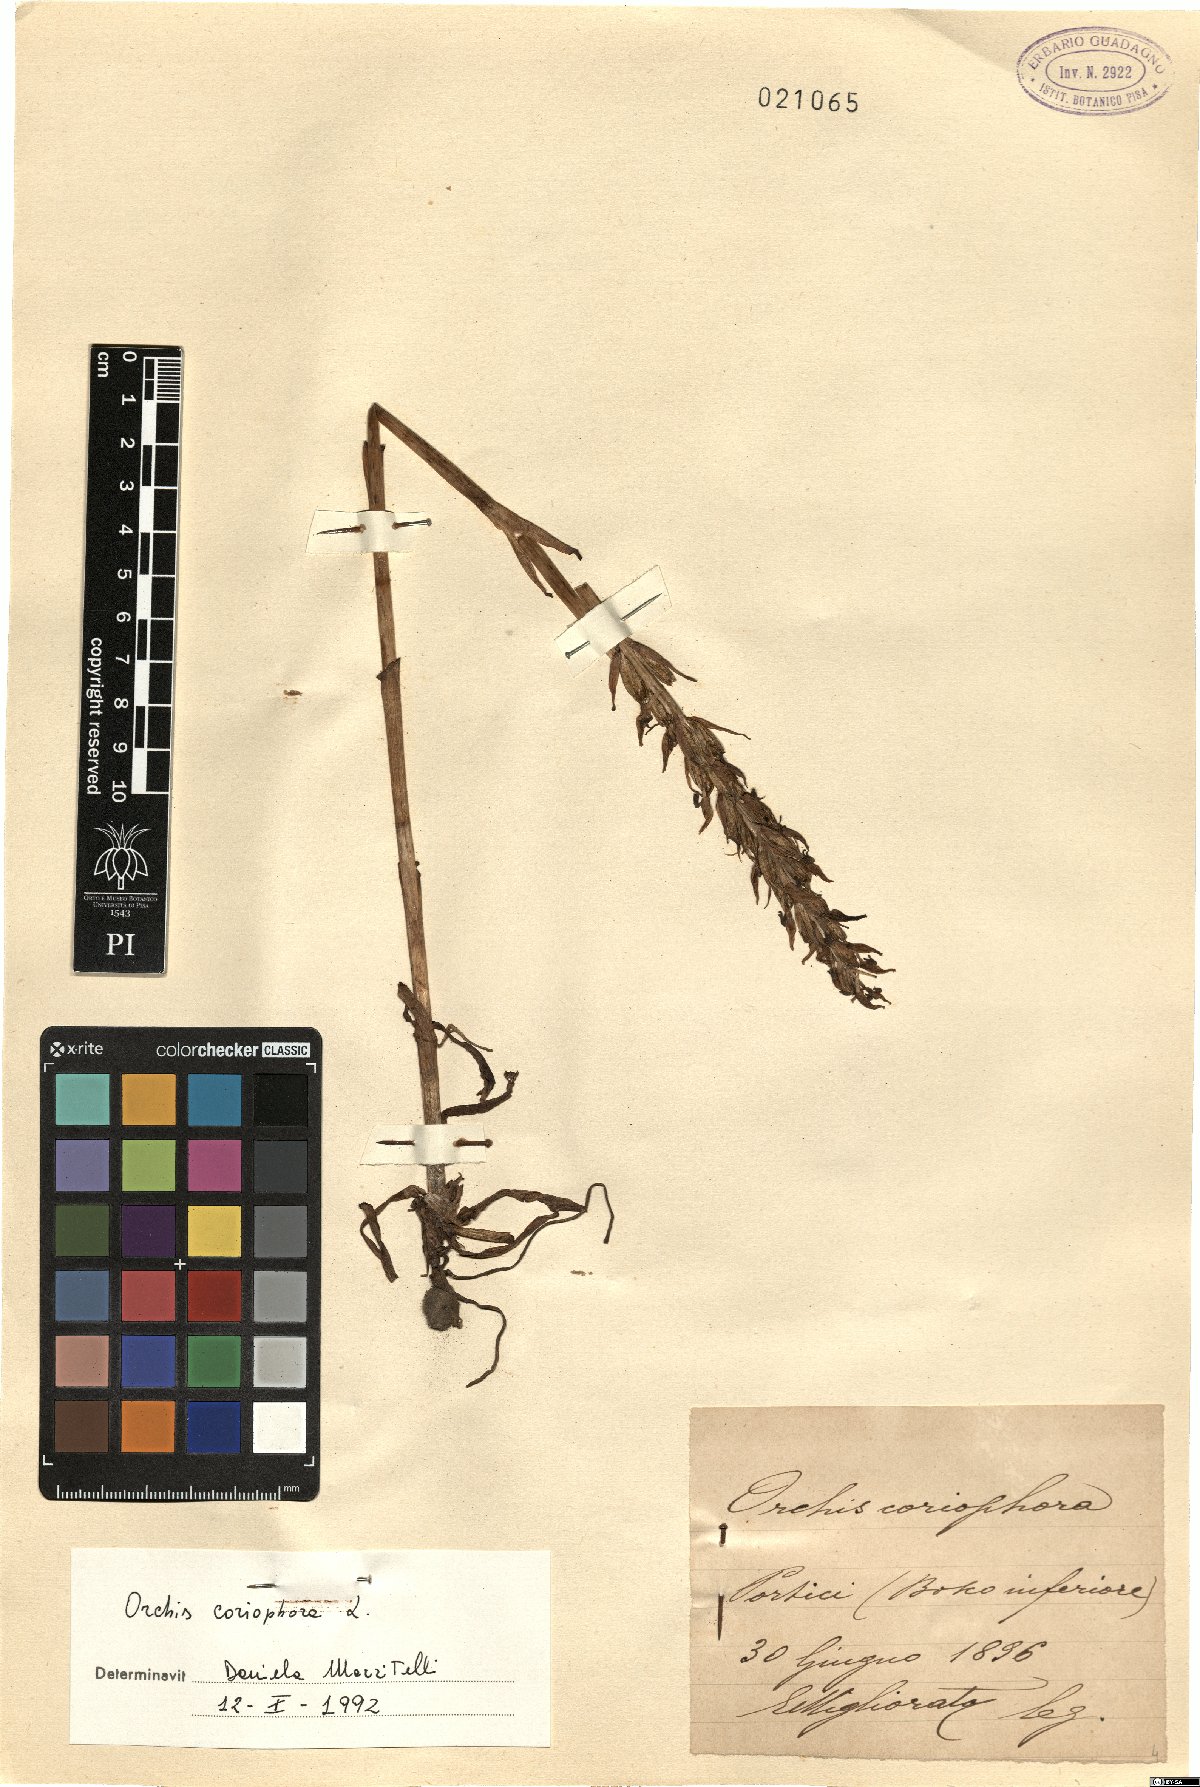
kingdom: Plantae
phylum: Tracheophyta
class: Liliopsida
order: Asparagales
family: Orchidaceae
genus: Anacamptis
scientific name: Anacamptis coriophora
